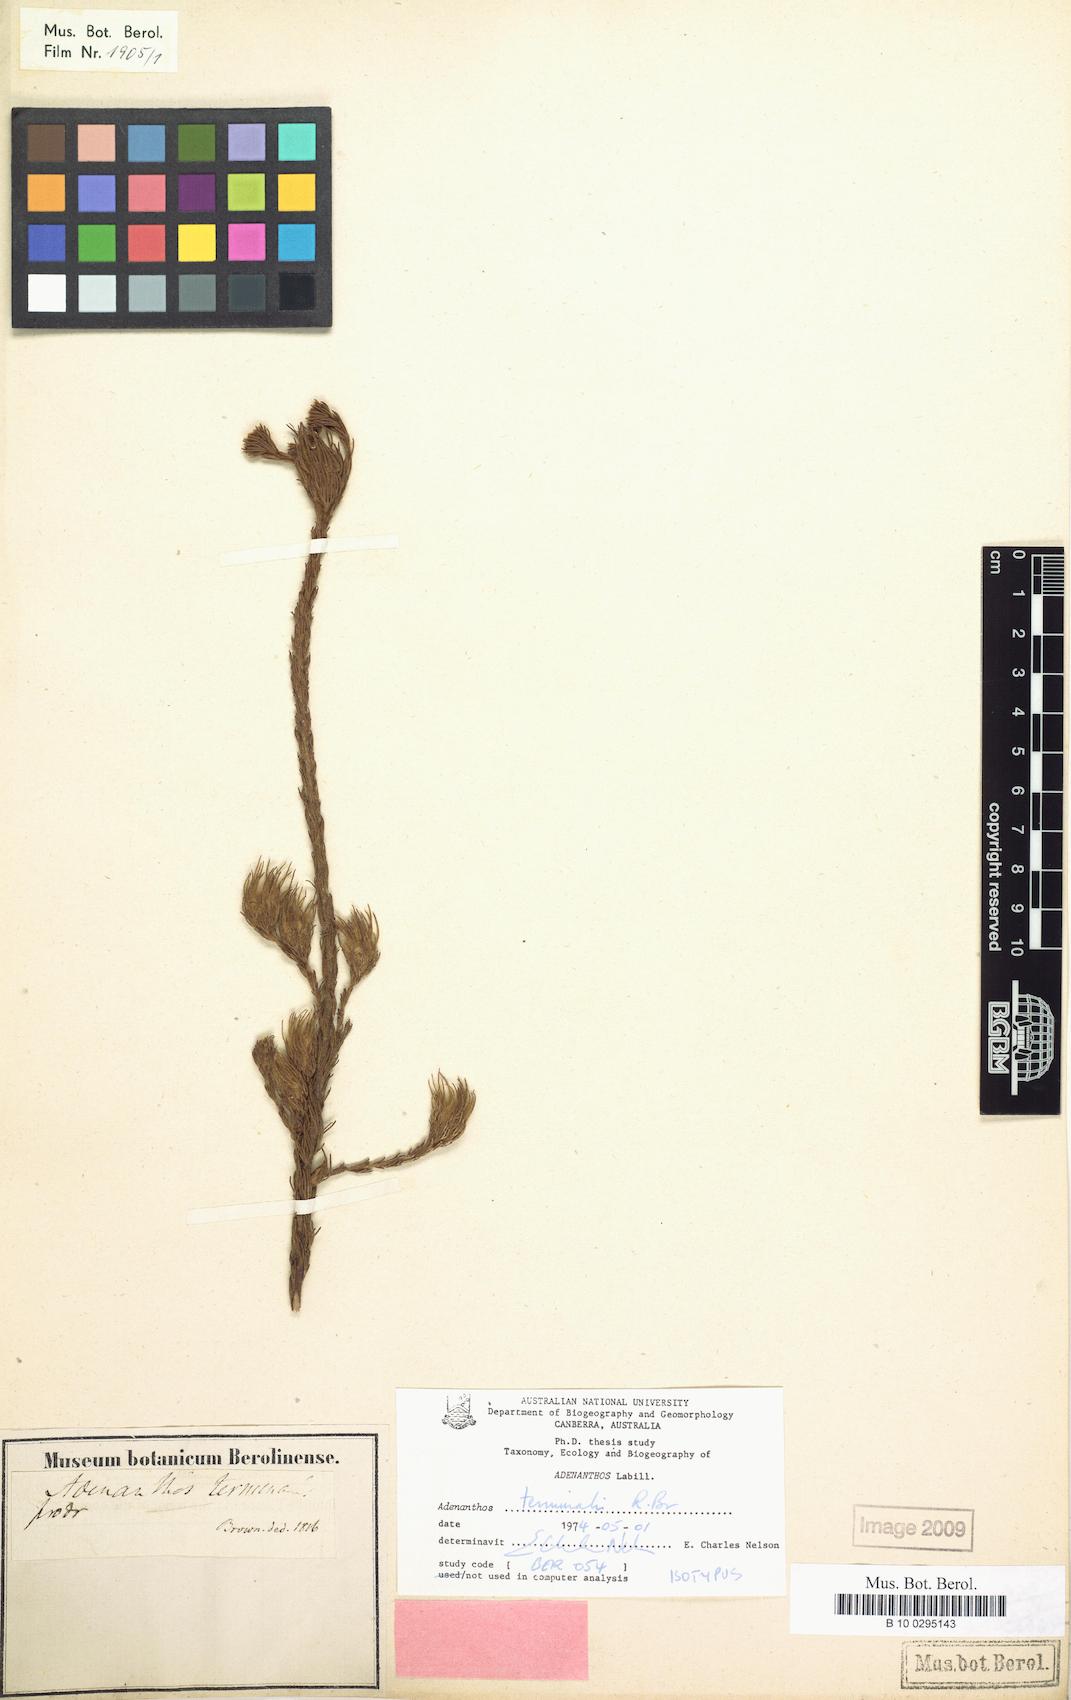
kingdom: Plantae
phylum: Tracheophyta
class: Magnoliopsida
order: Proteales
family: Proteaceae
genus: Adenanthos
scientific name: Adenanthos terminalis
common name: Yellow gland-flower
